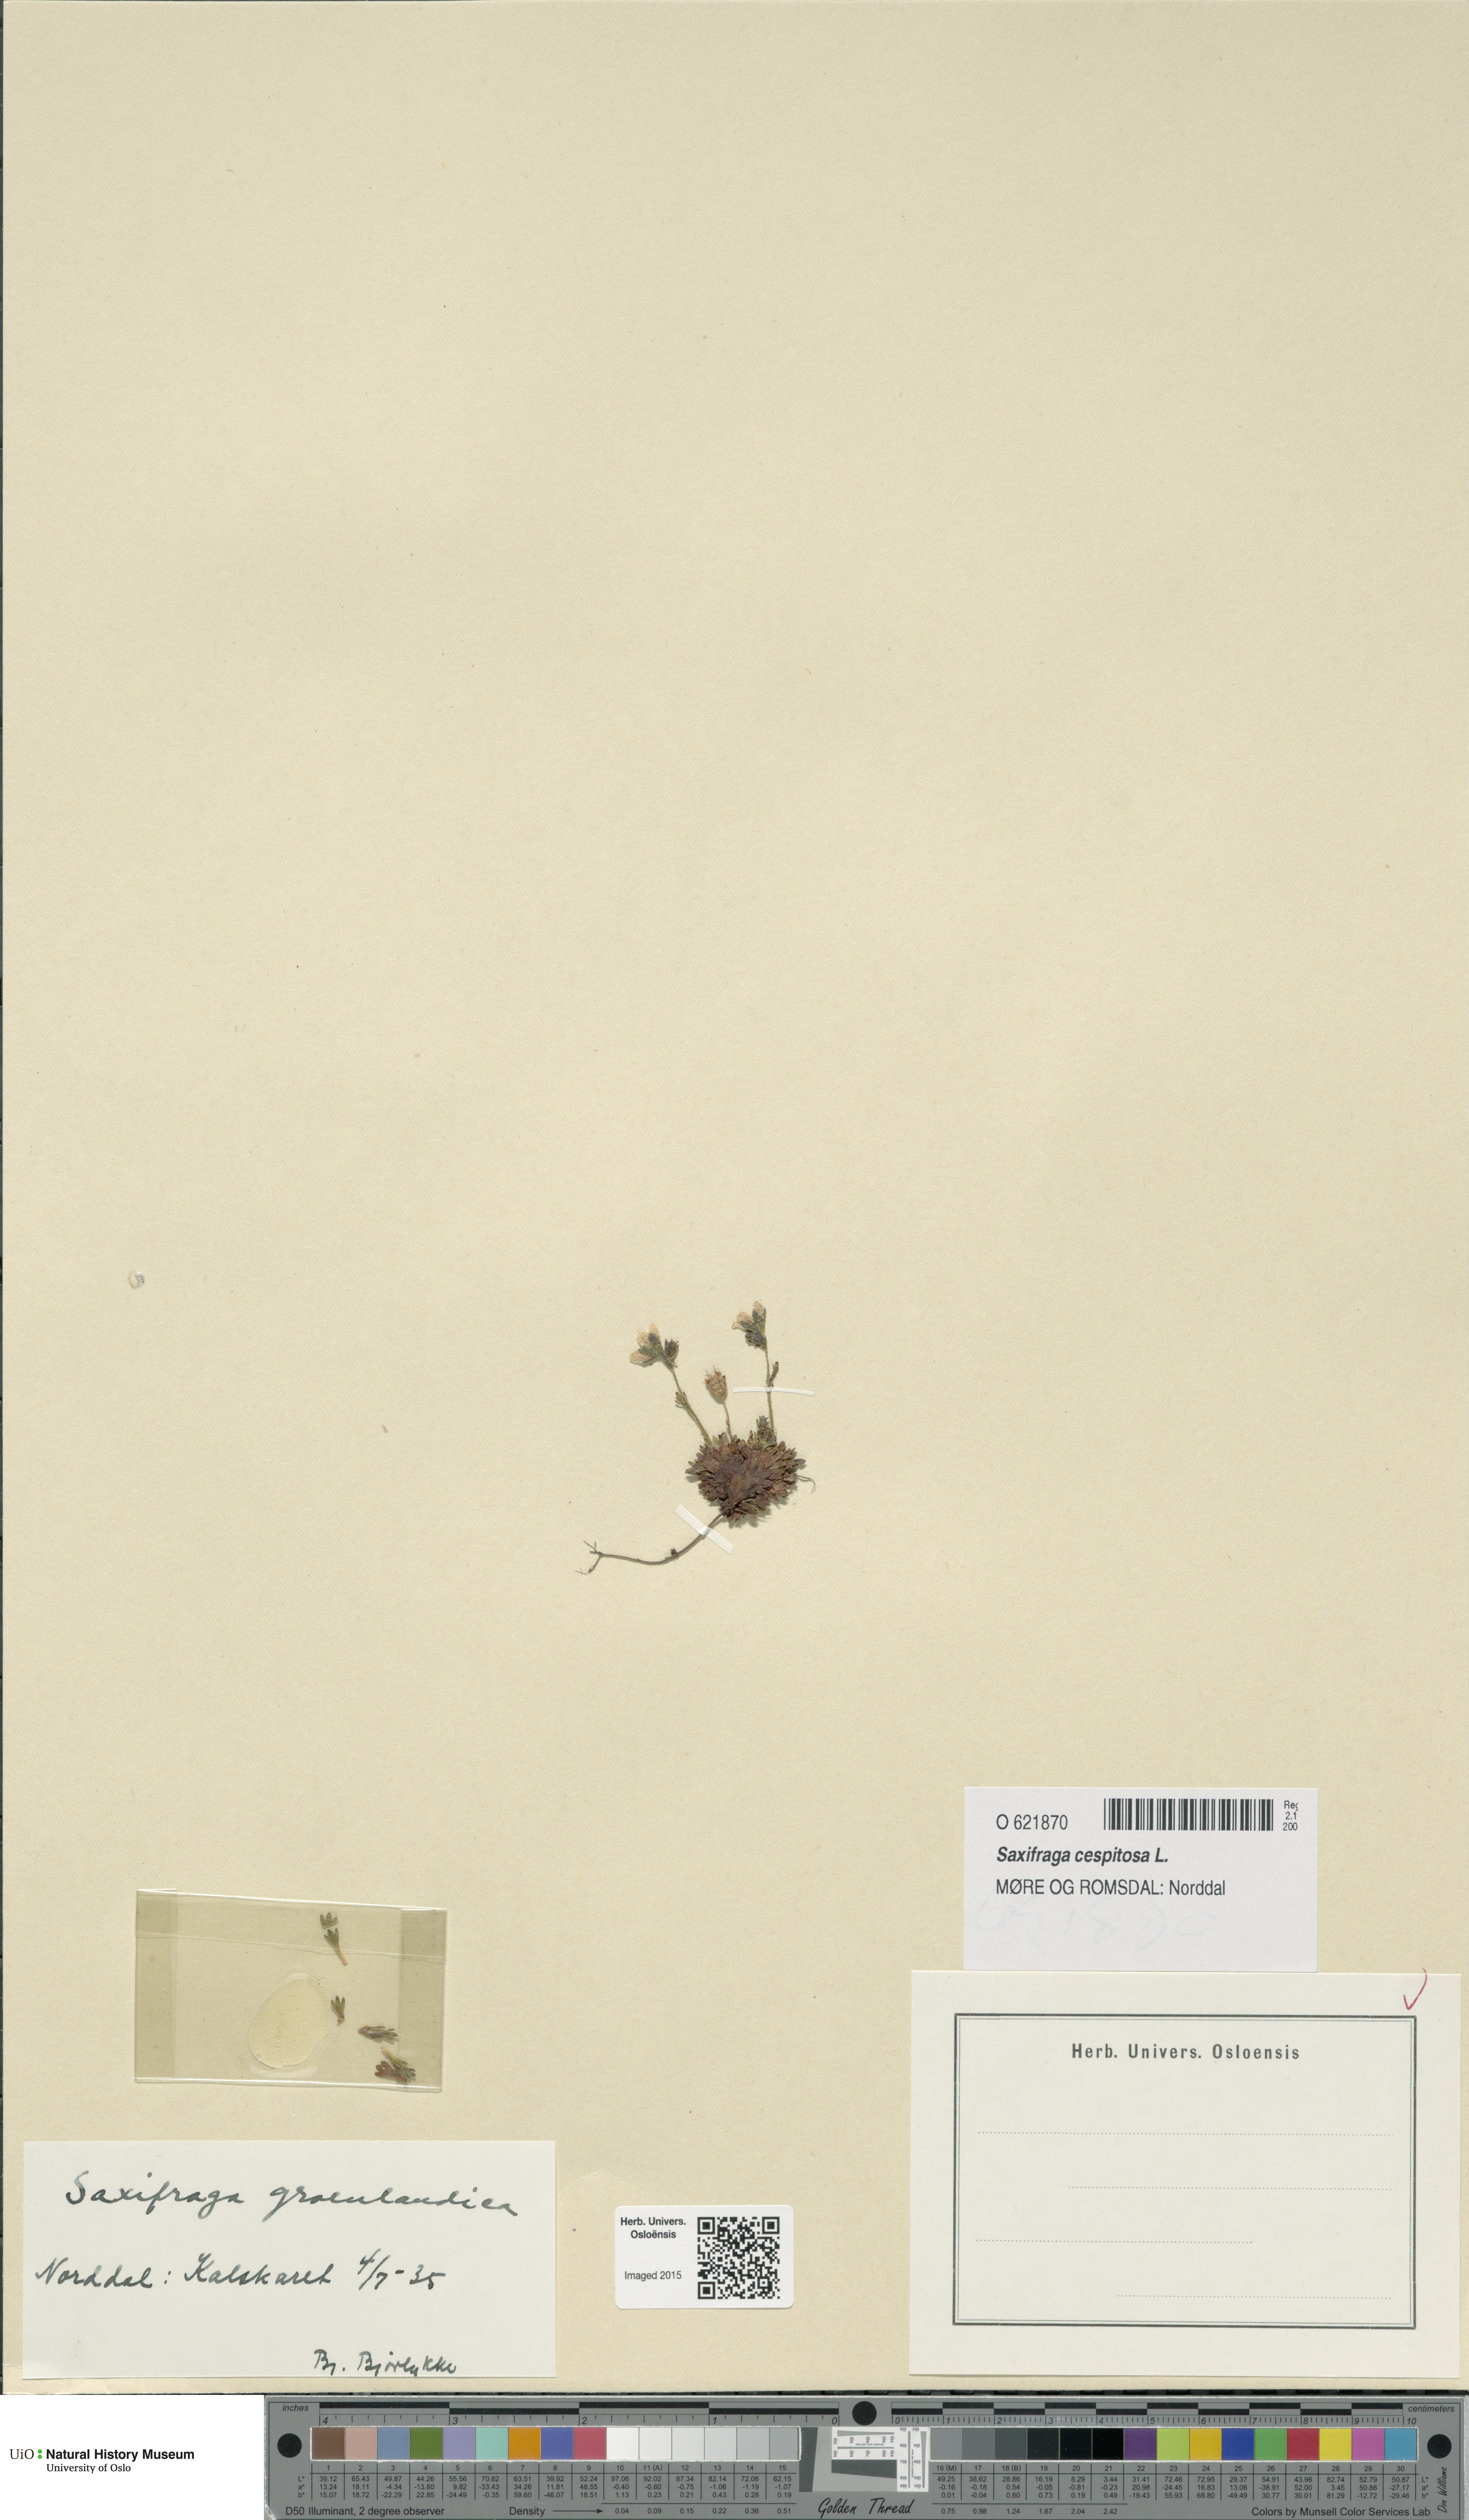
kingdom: Plantae
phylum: Tracheophyta
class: Magnoliopsida
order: Saxifragales
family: Saxifragaceae
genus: Saxifraga
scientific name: Saxifraga cespitosa
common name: Tufted saxifrage
